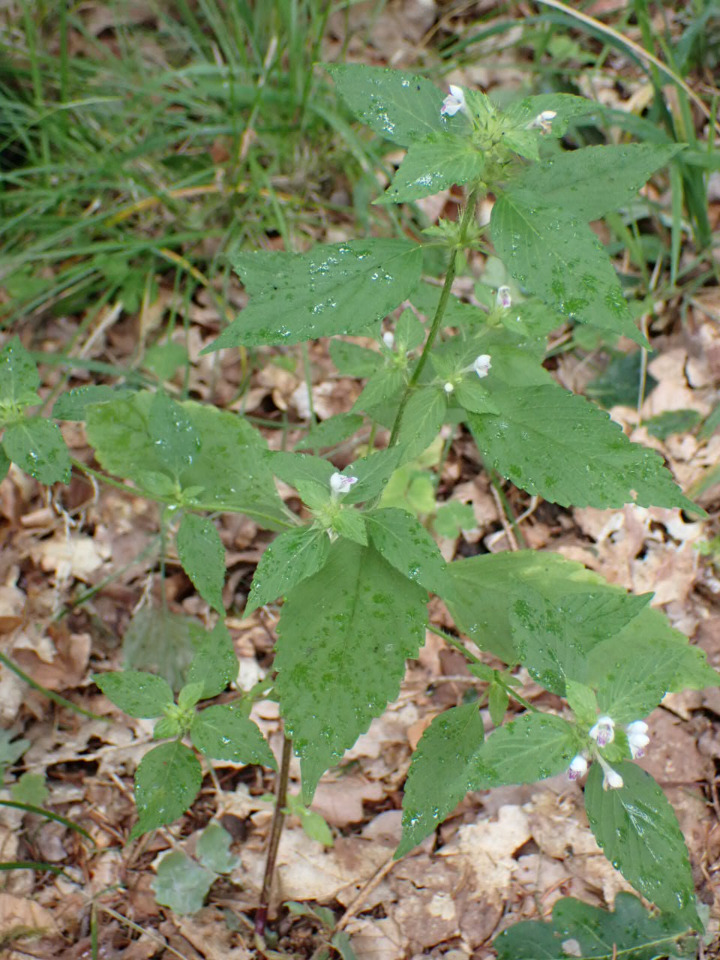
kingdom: Plantae
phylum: Tracheophyta
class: Magnoliopsida
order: Lamiales
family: Lamiaceae
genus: Galeopsis
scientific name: Galeopsis bifida
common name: Skov-hanekro
